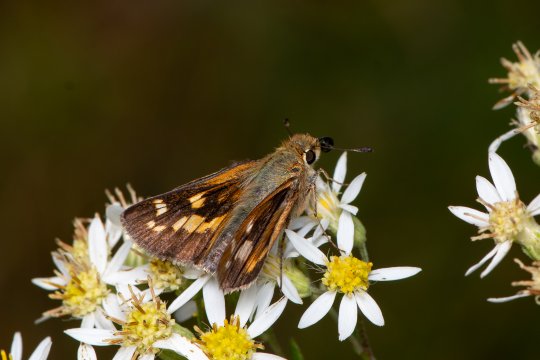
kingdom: Animalia
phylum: Arthropoda
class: Insecta
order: Lepidoptera
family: Hesperiidae
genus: Hesperia
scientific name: Hesperia leonardus
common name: Leonard's Skipper
